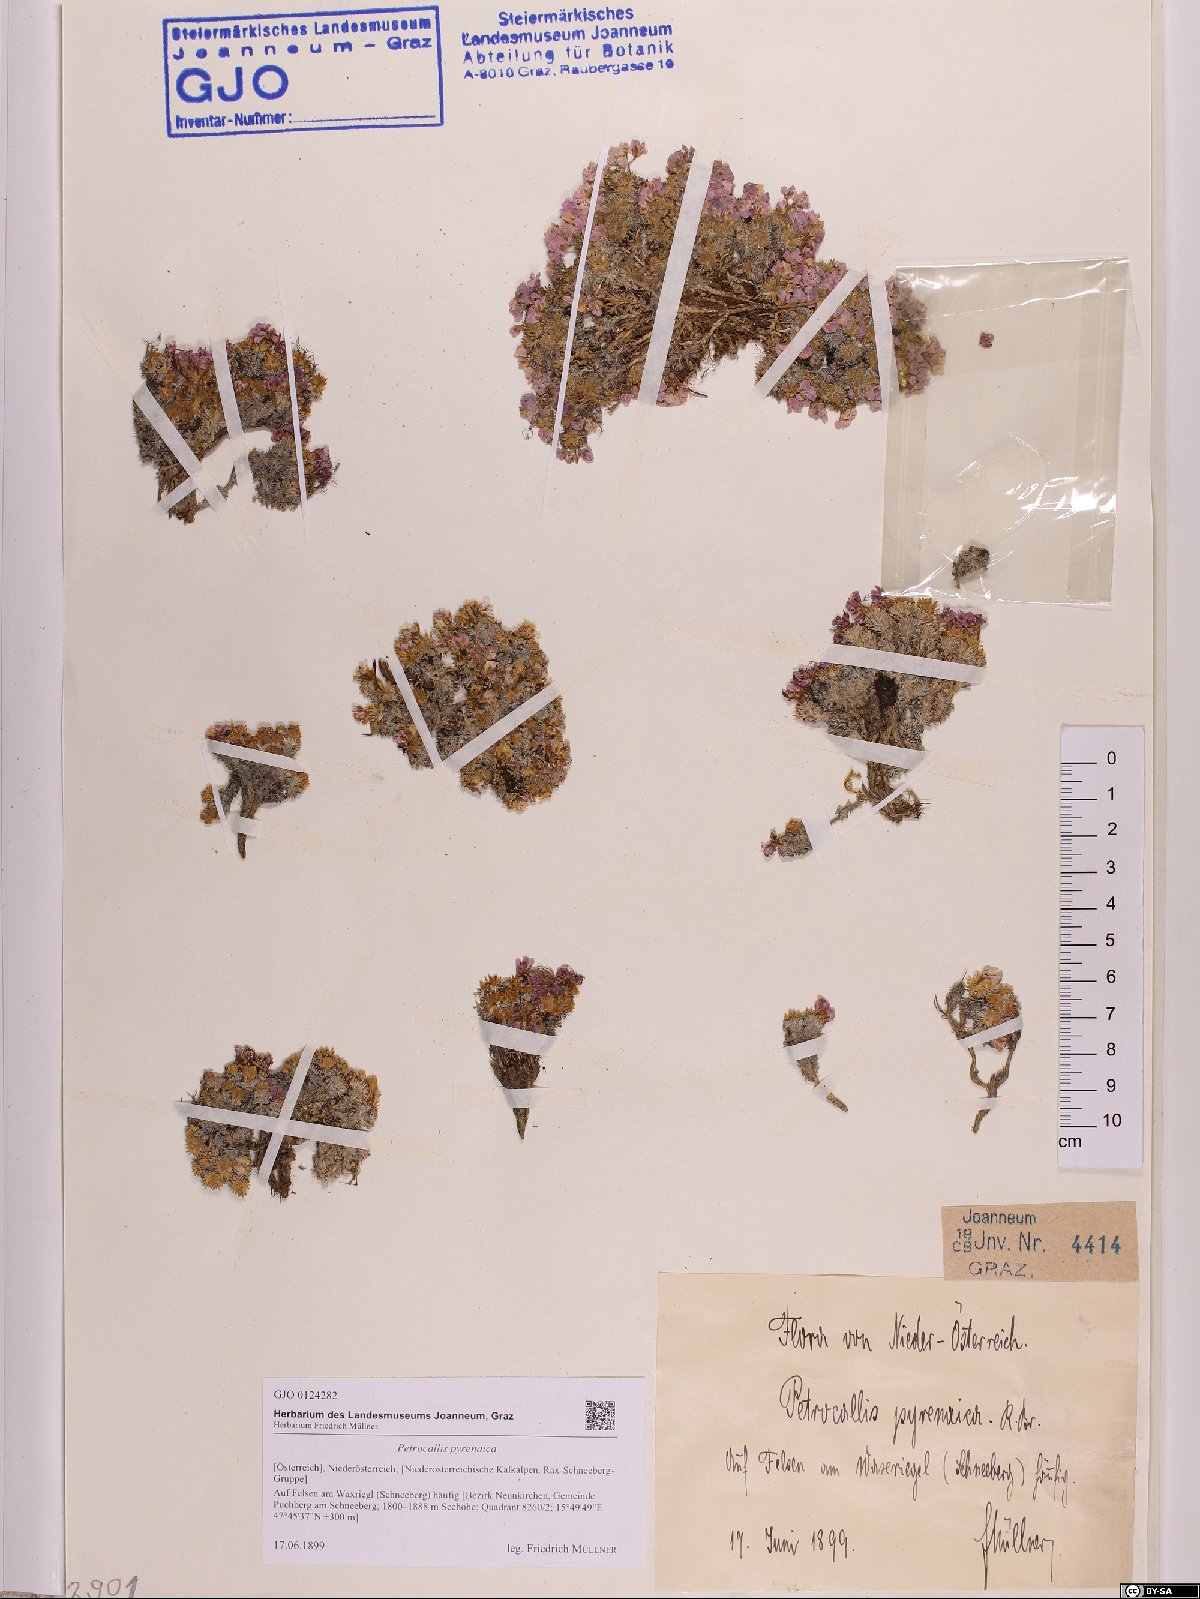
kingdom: Plantae
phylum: Tracheophyta
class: Magnoliopsida
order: Brassicales
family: Brassicaceae
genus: Petrocallis
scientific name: Petrocallis pyrenaica
